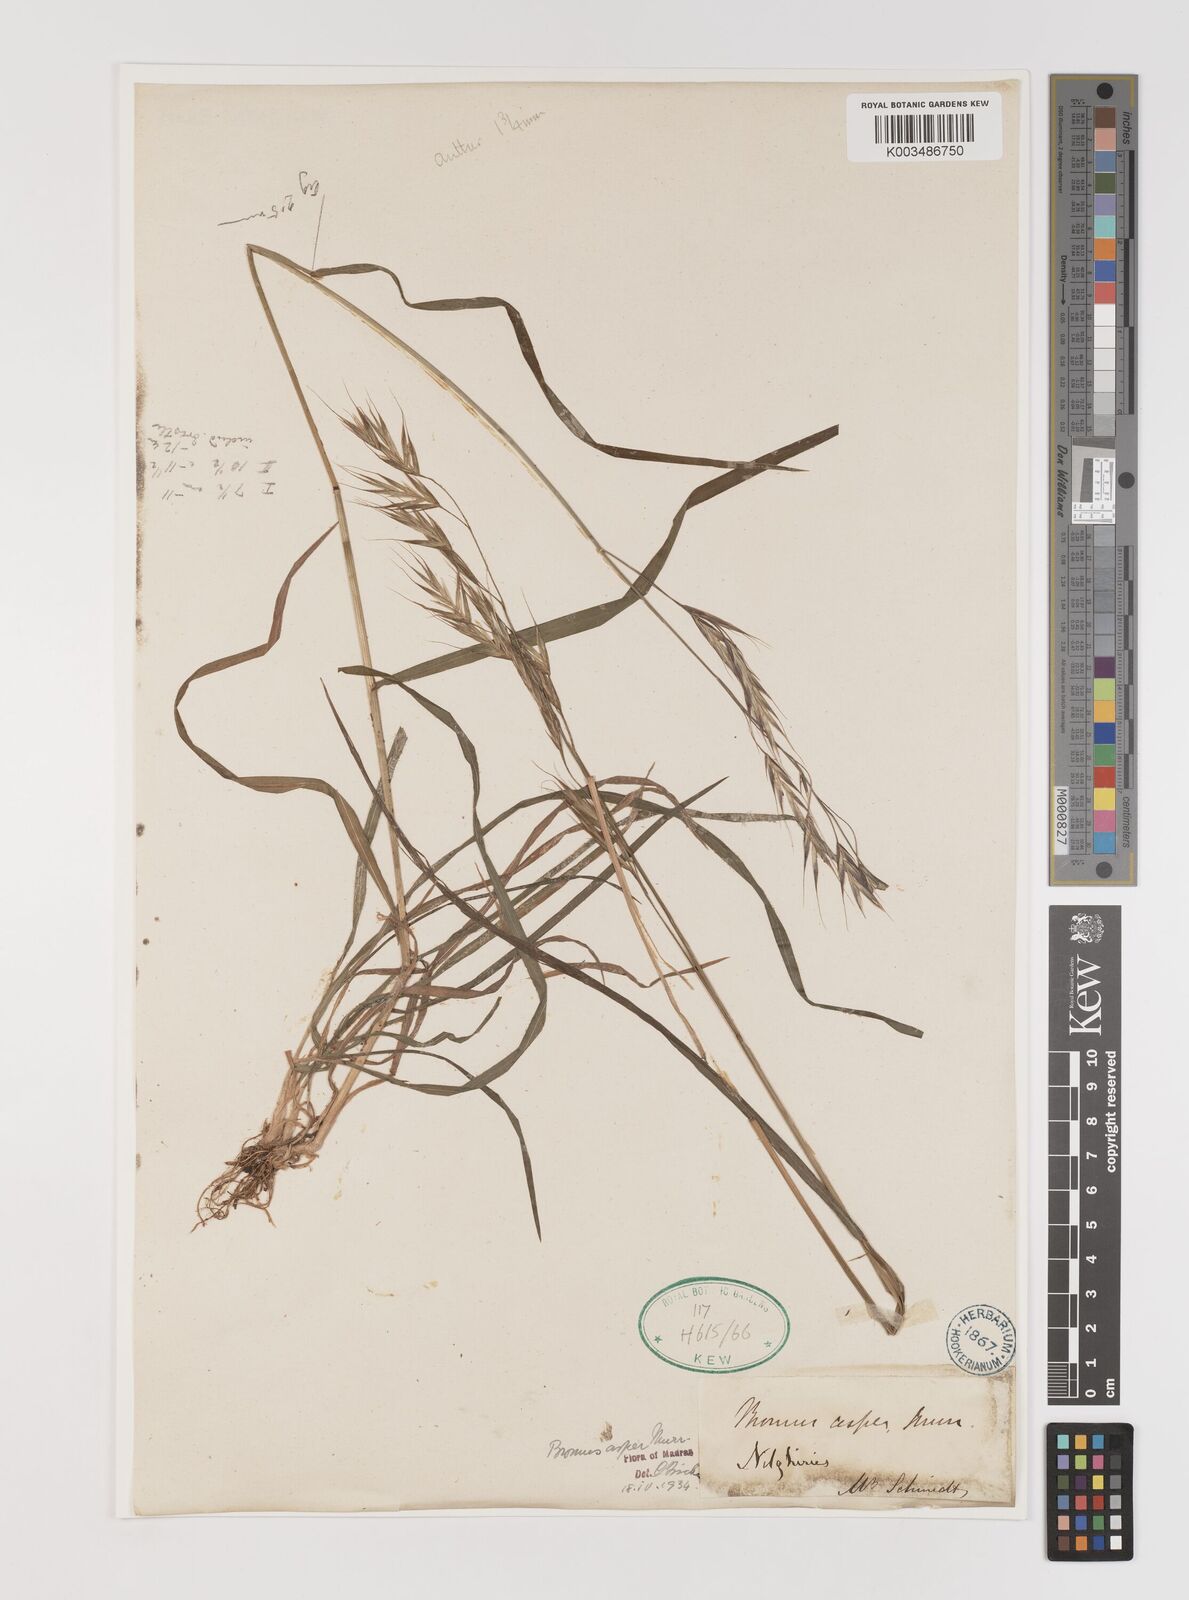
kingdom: Plantae
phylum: Tracheophyta
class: Liliopsida
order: Poales
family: Poaceae
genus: Brachypodium
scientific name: Brachypodium retusum
